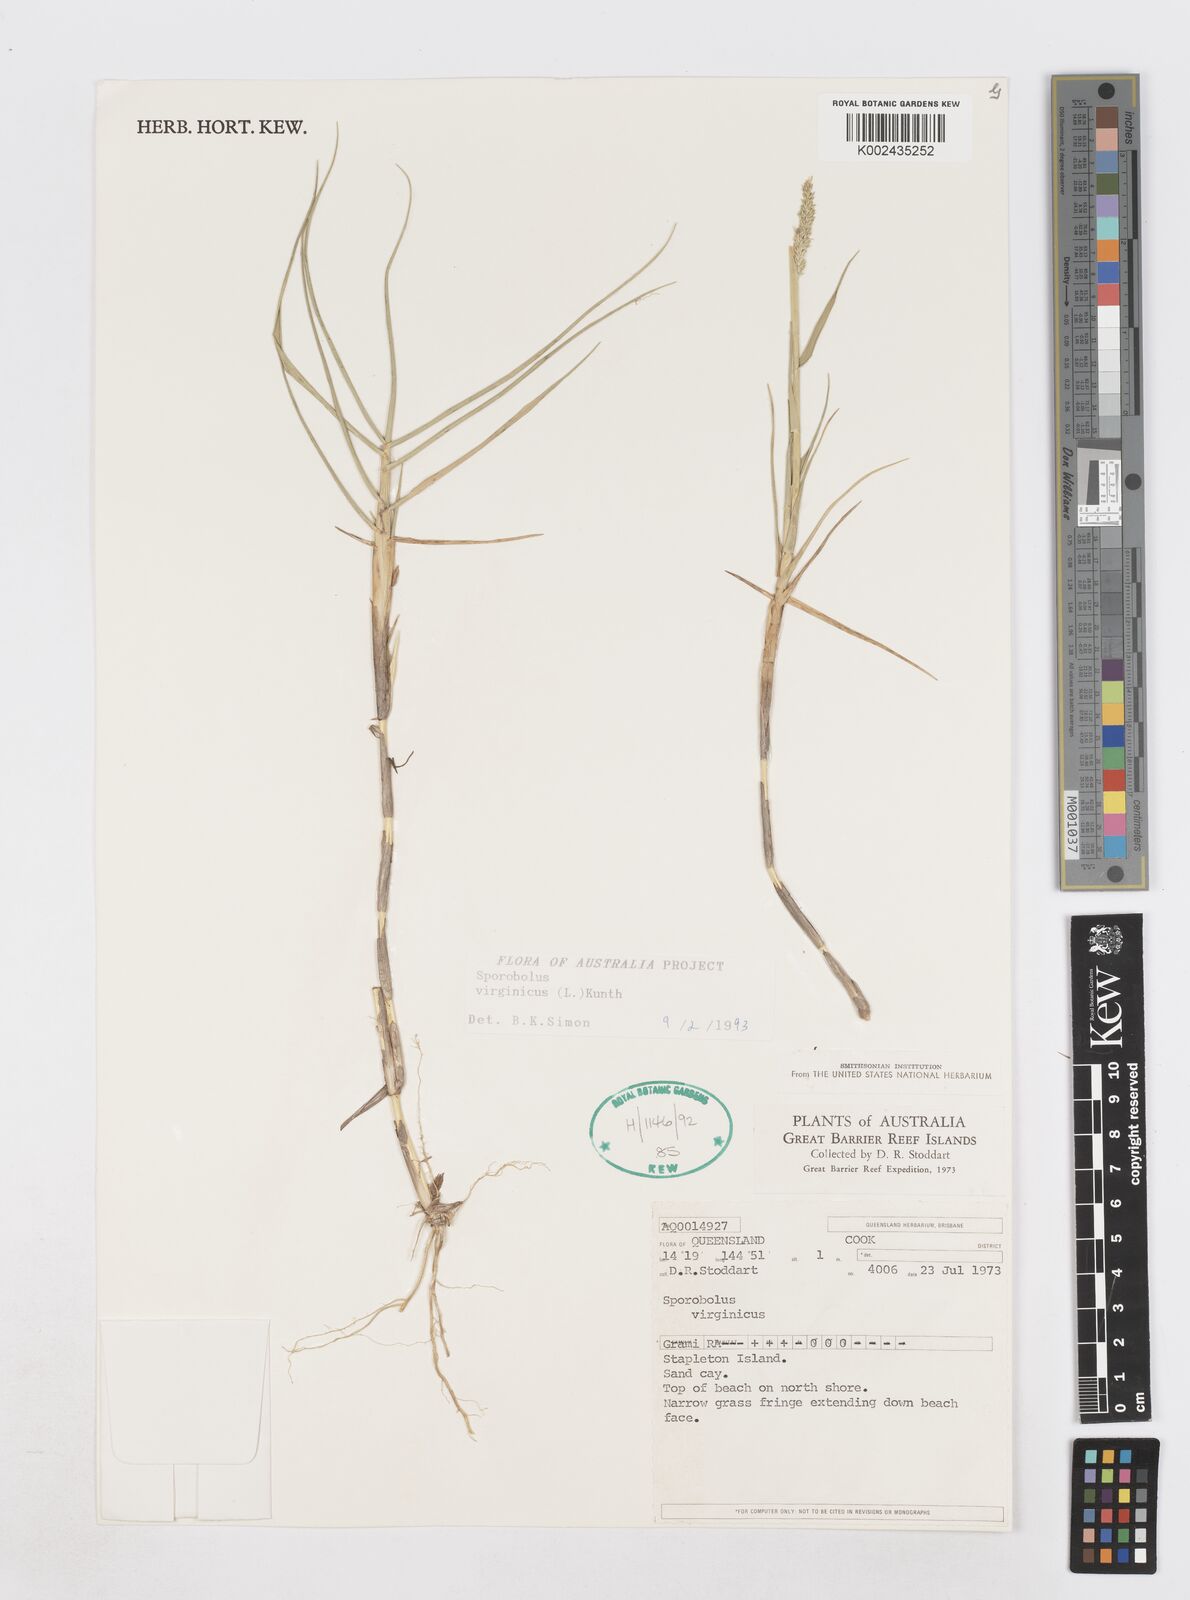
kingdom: Plantae
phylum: Tracheophyta
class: Liliopsida
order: Poales
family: Poaceae
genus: Sporobolus
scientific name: Sporobolus virginicus
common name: Beach dropseed
